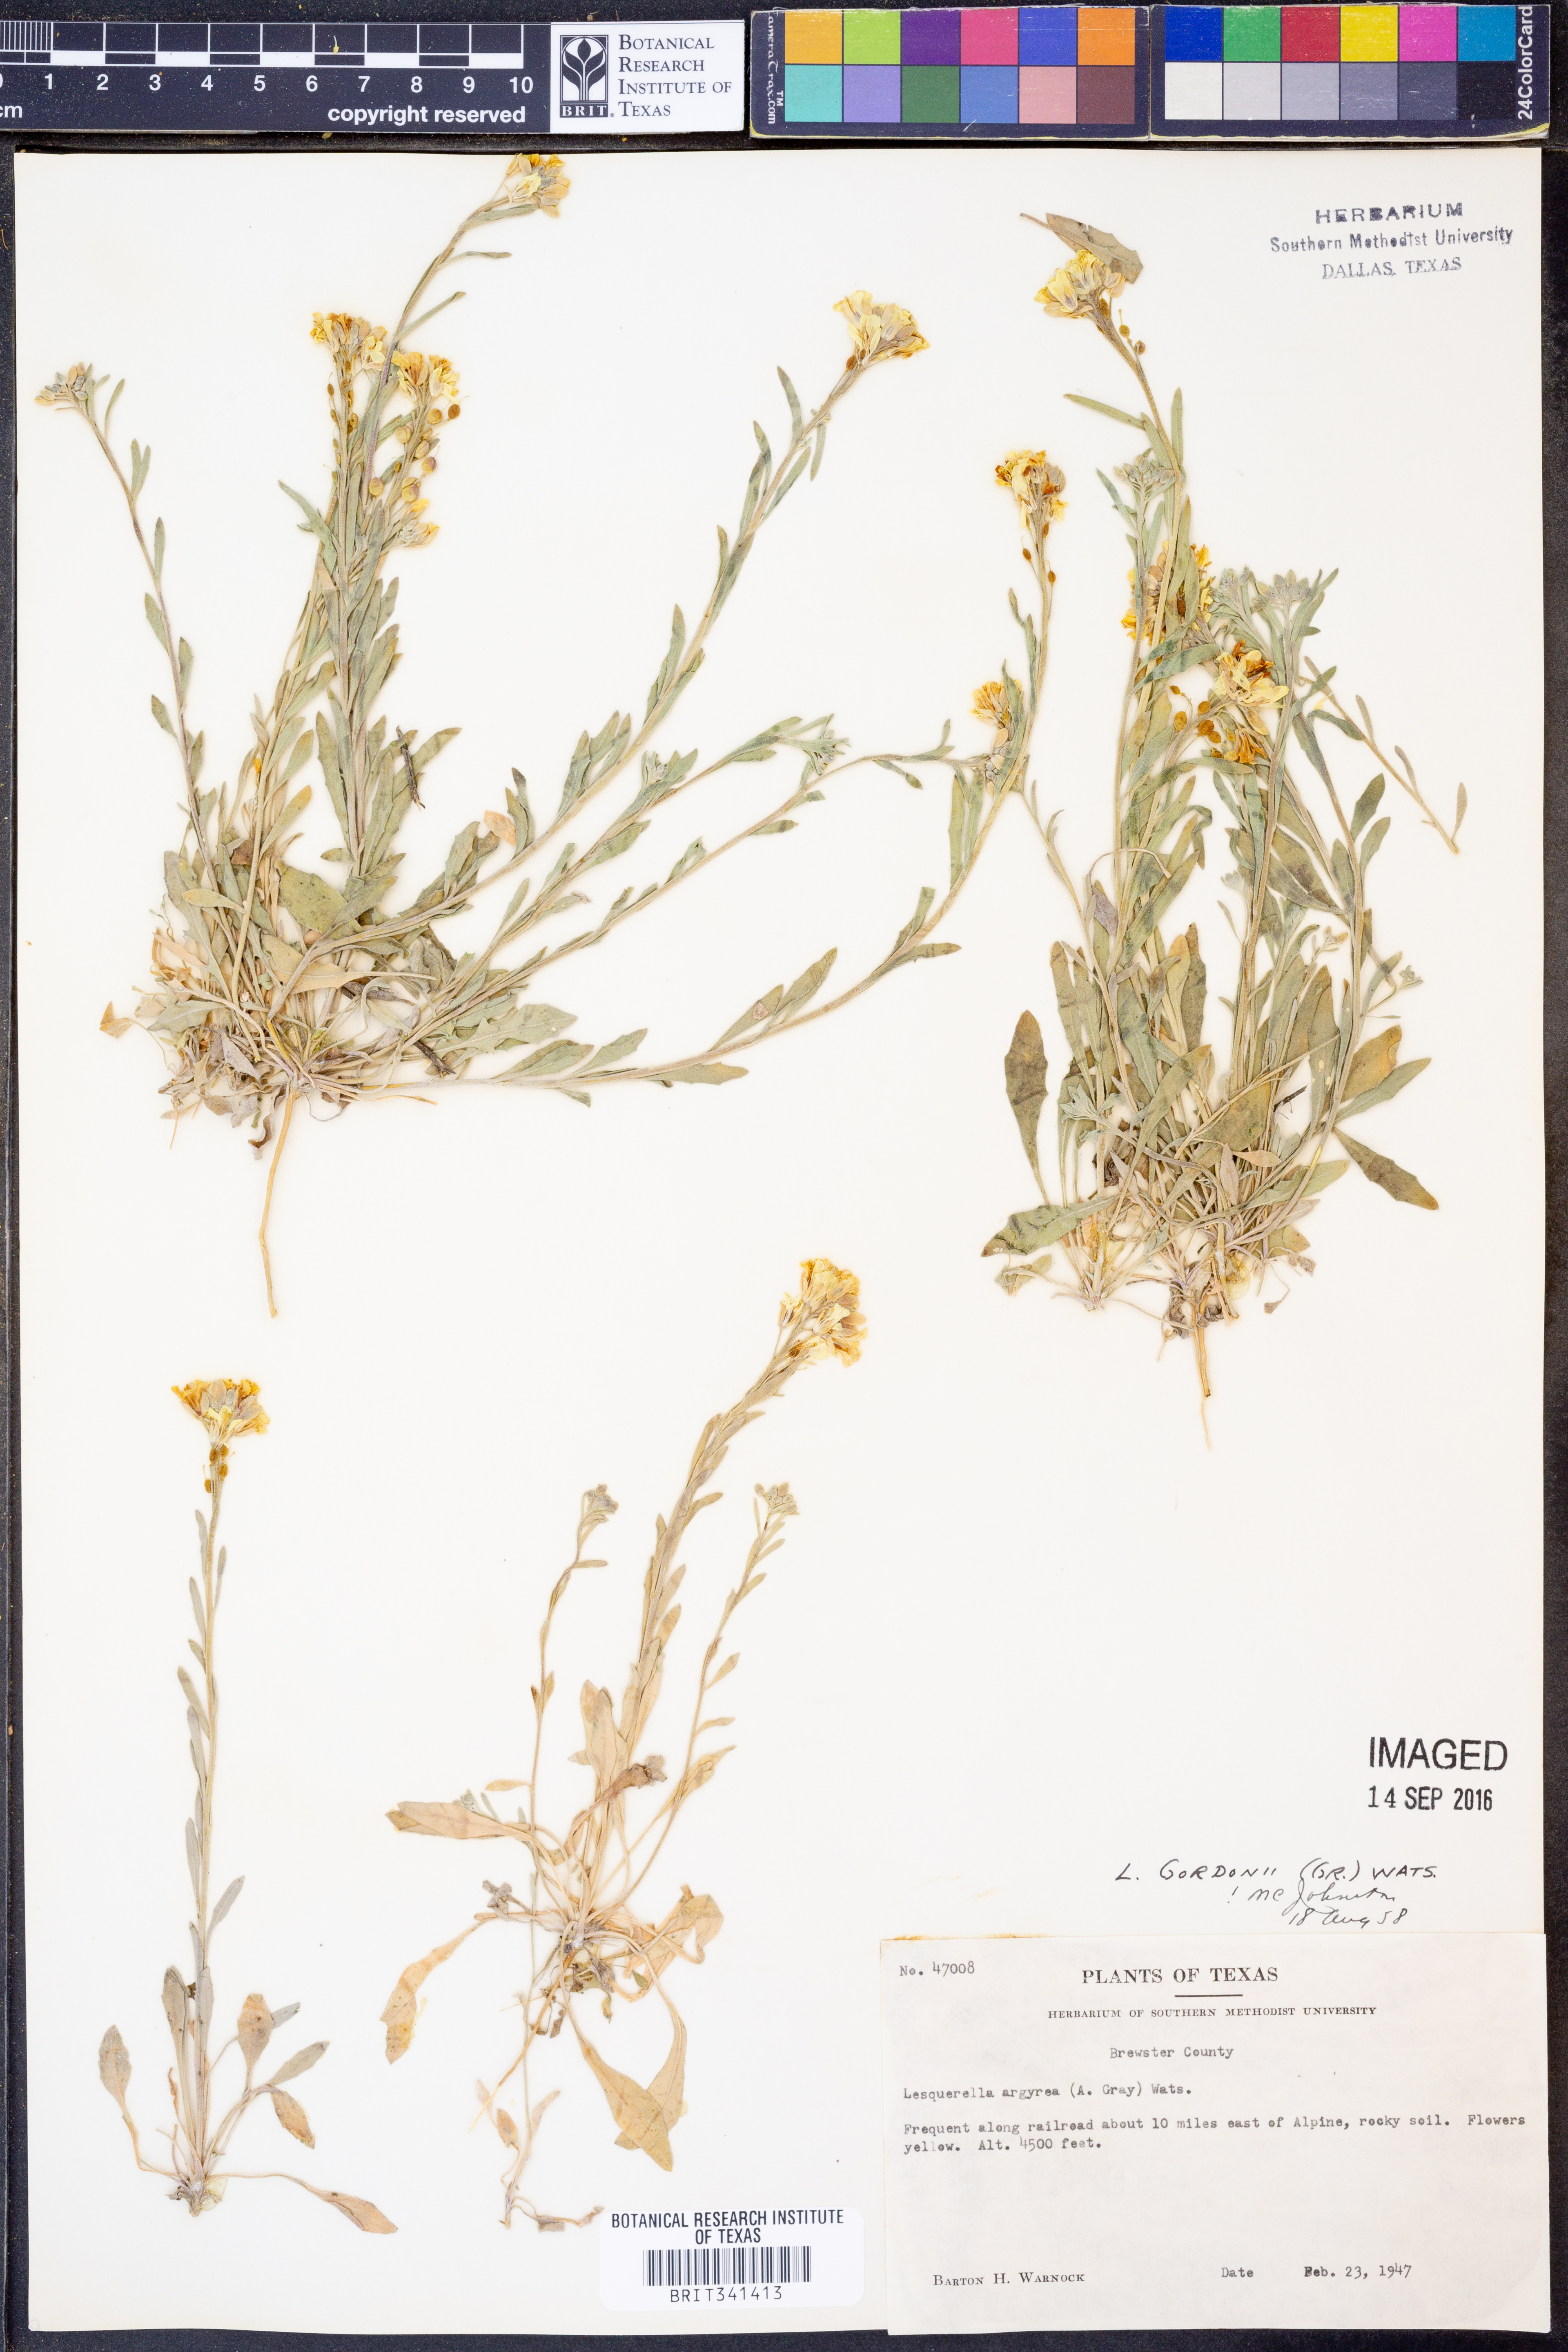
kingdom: Plantae
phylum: Tracheophyta
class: Magnoliopsida
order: Brassicales
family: Brassicaceae
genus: Physaria
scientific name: Physaria gordonii
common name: Gordon's bladderpod
